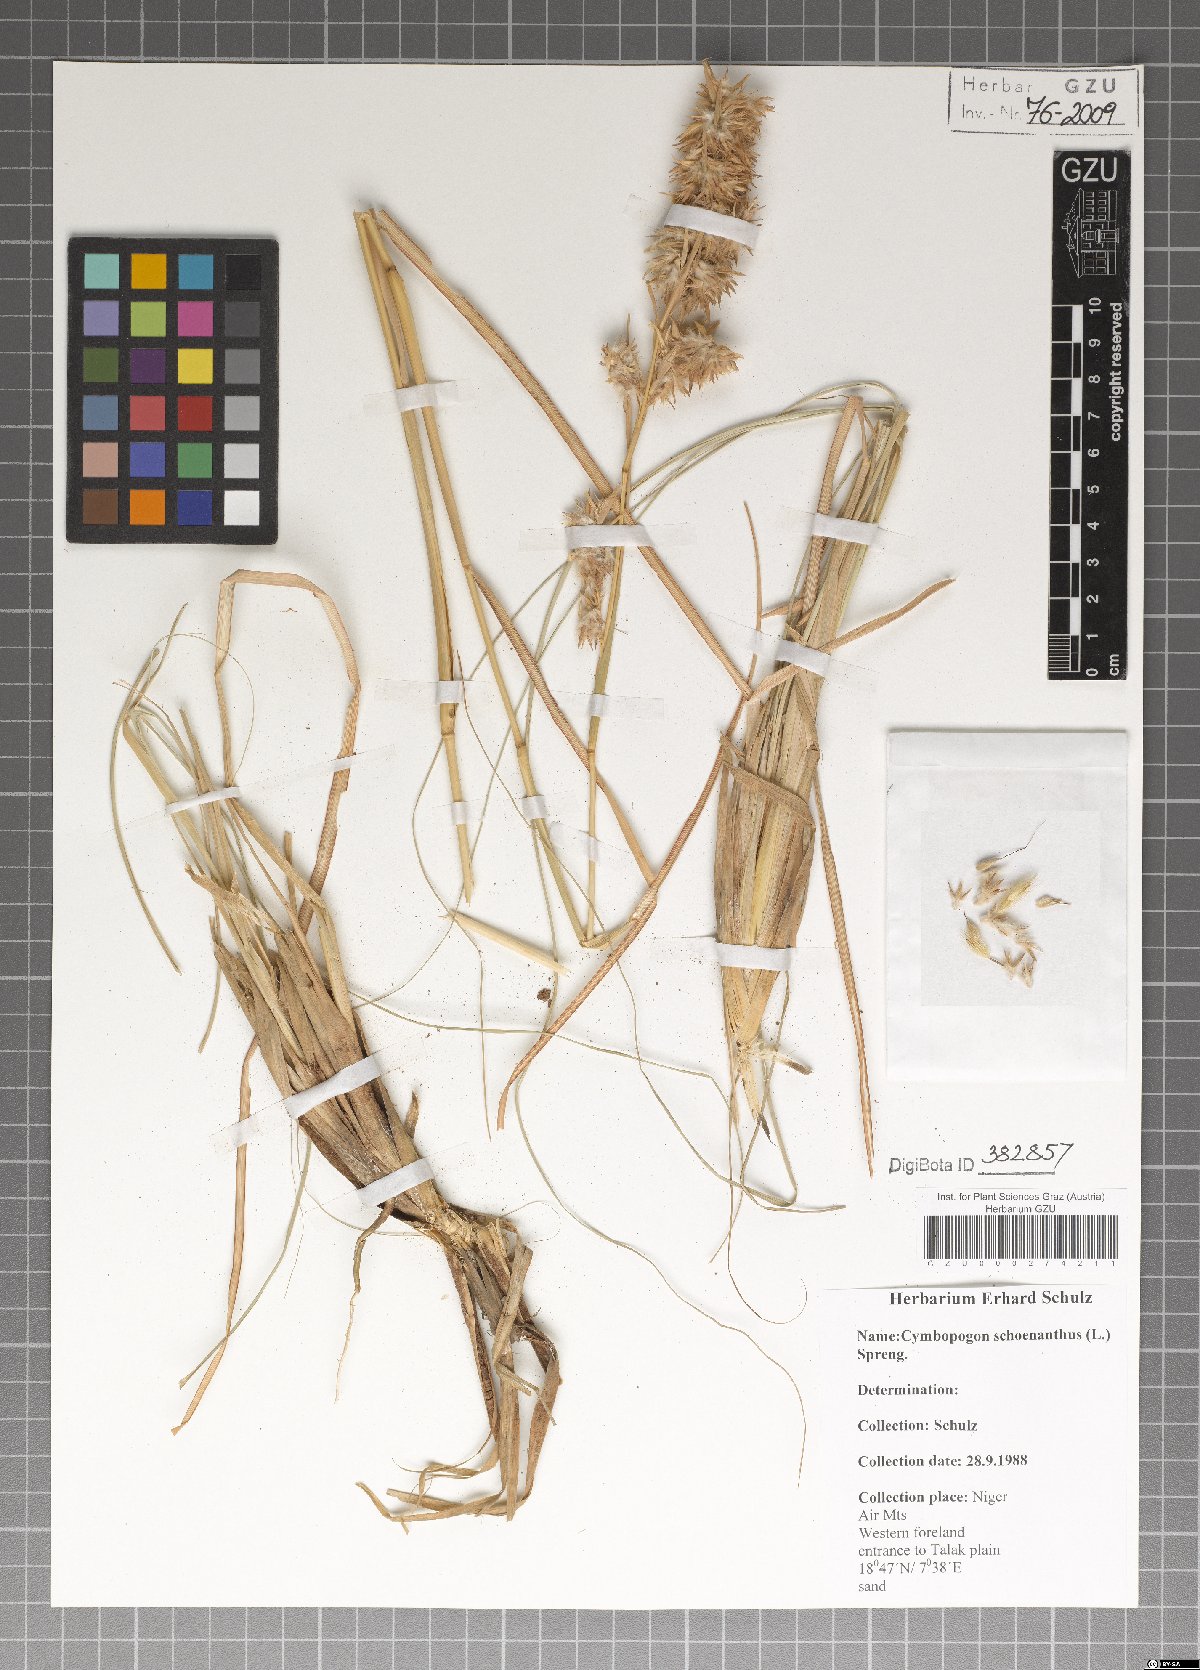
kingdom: Plantae
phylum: Tracheophyta
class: Liliopsida
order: Poales
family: Poaceae
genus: Cymbopogon
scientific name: Cymbopogon schoenanthus
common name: Geranium grass
